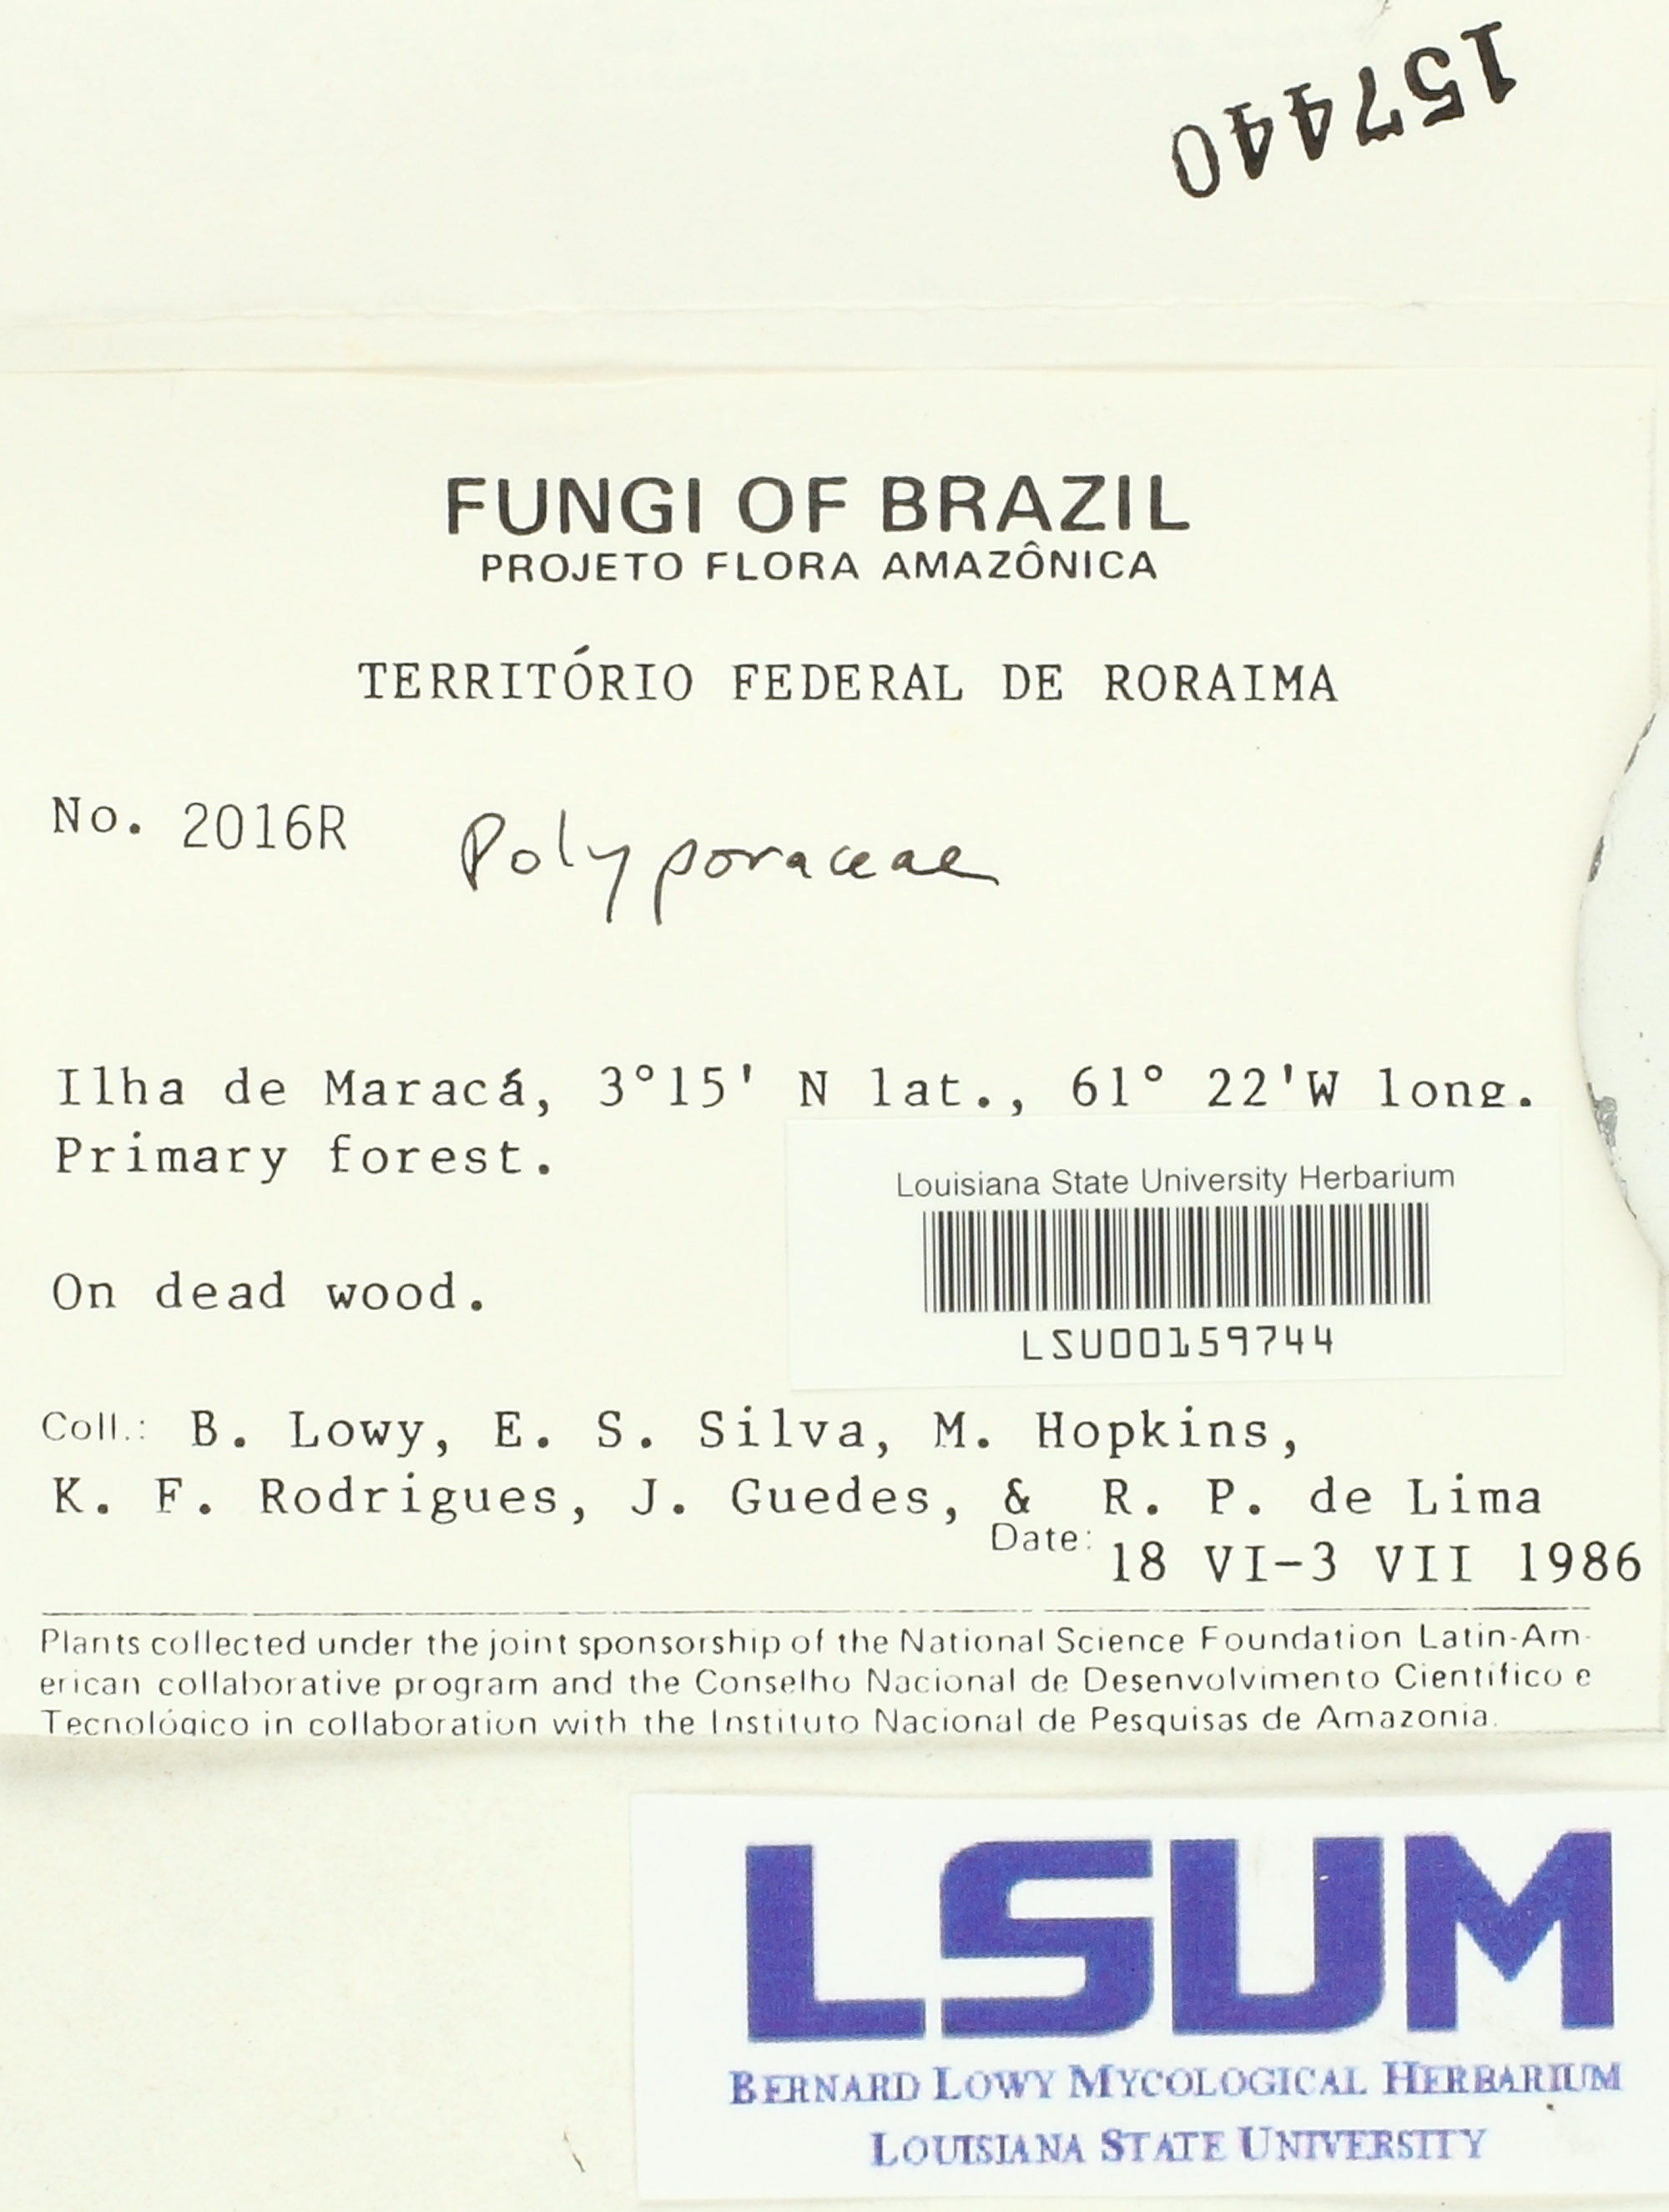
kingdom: Fungi
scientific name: Fungi
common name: Fungi
